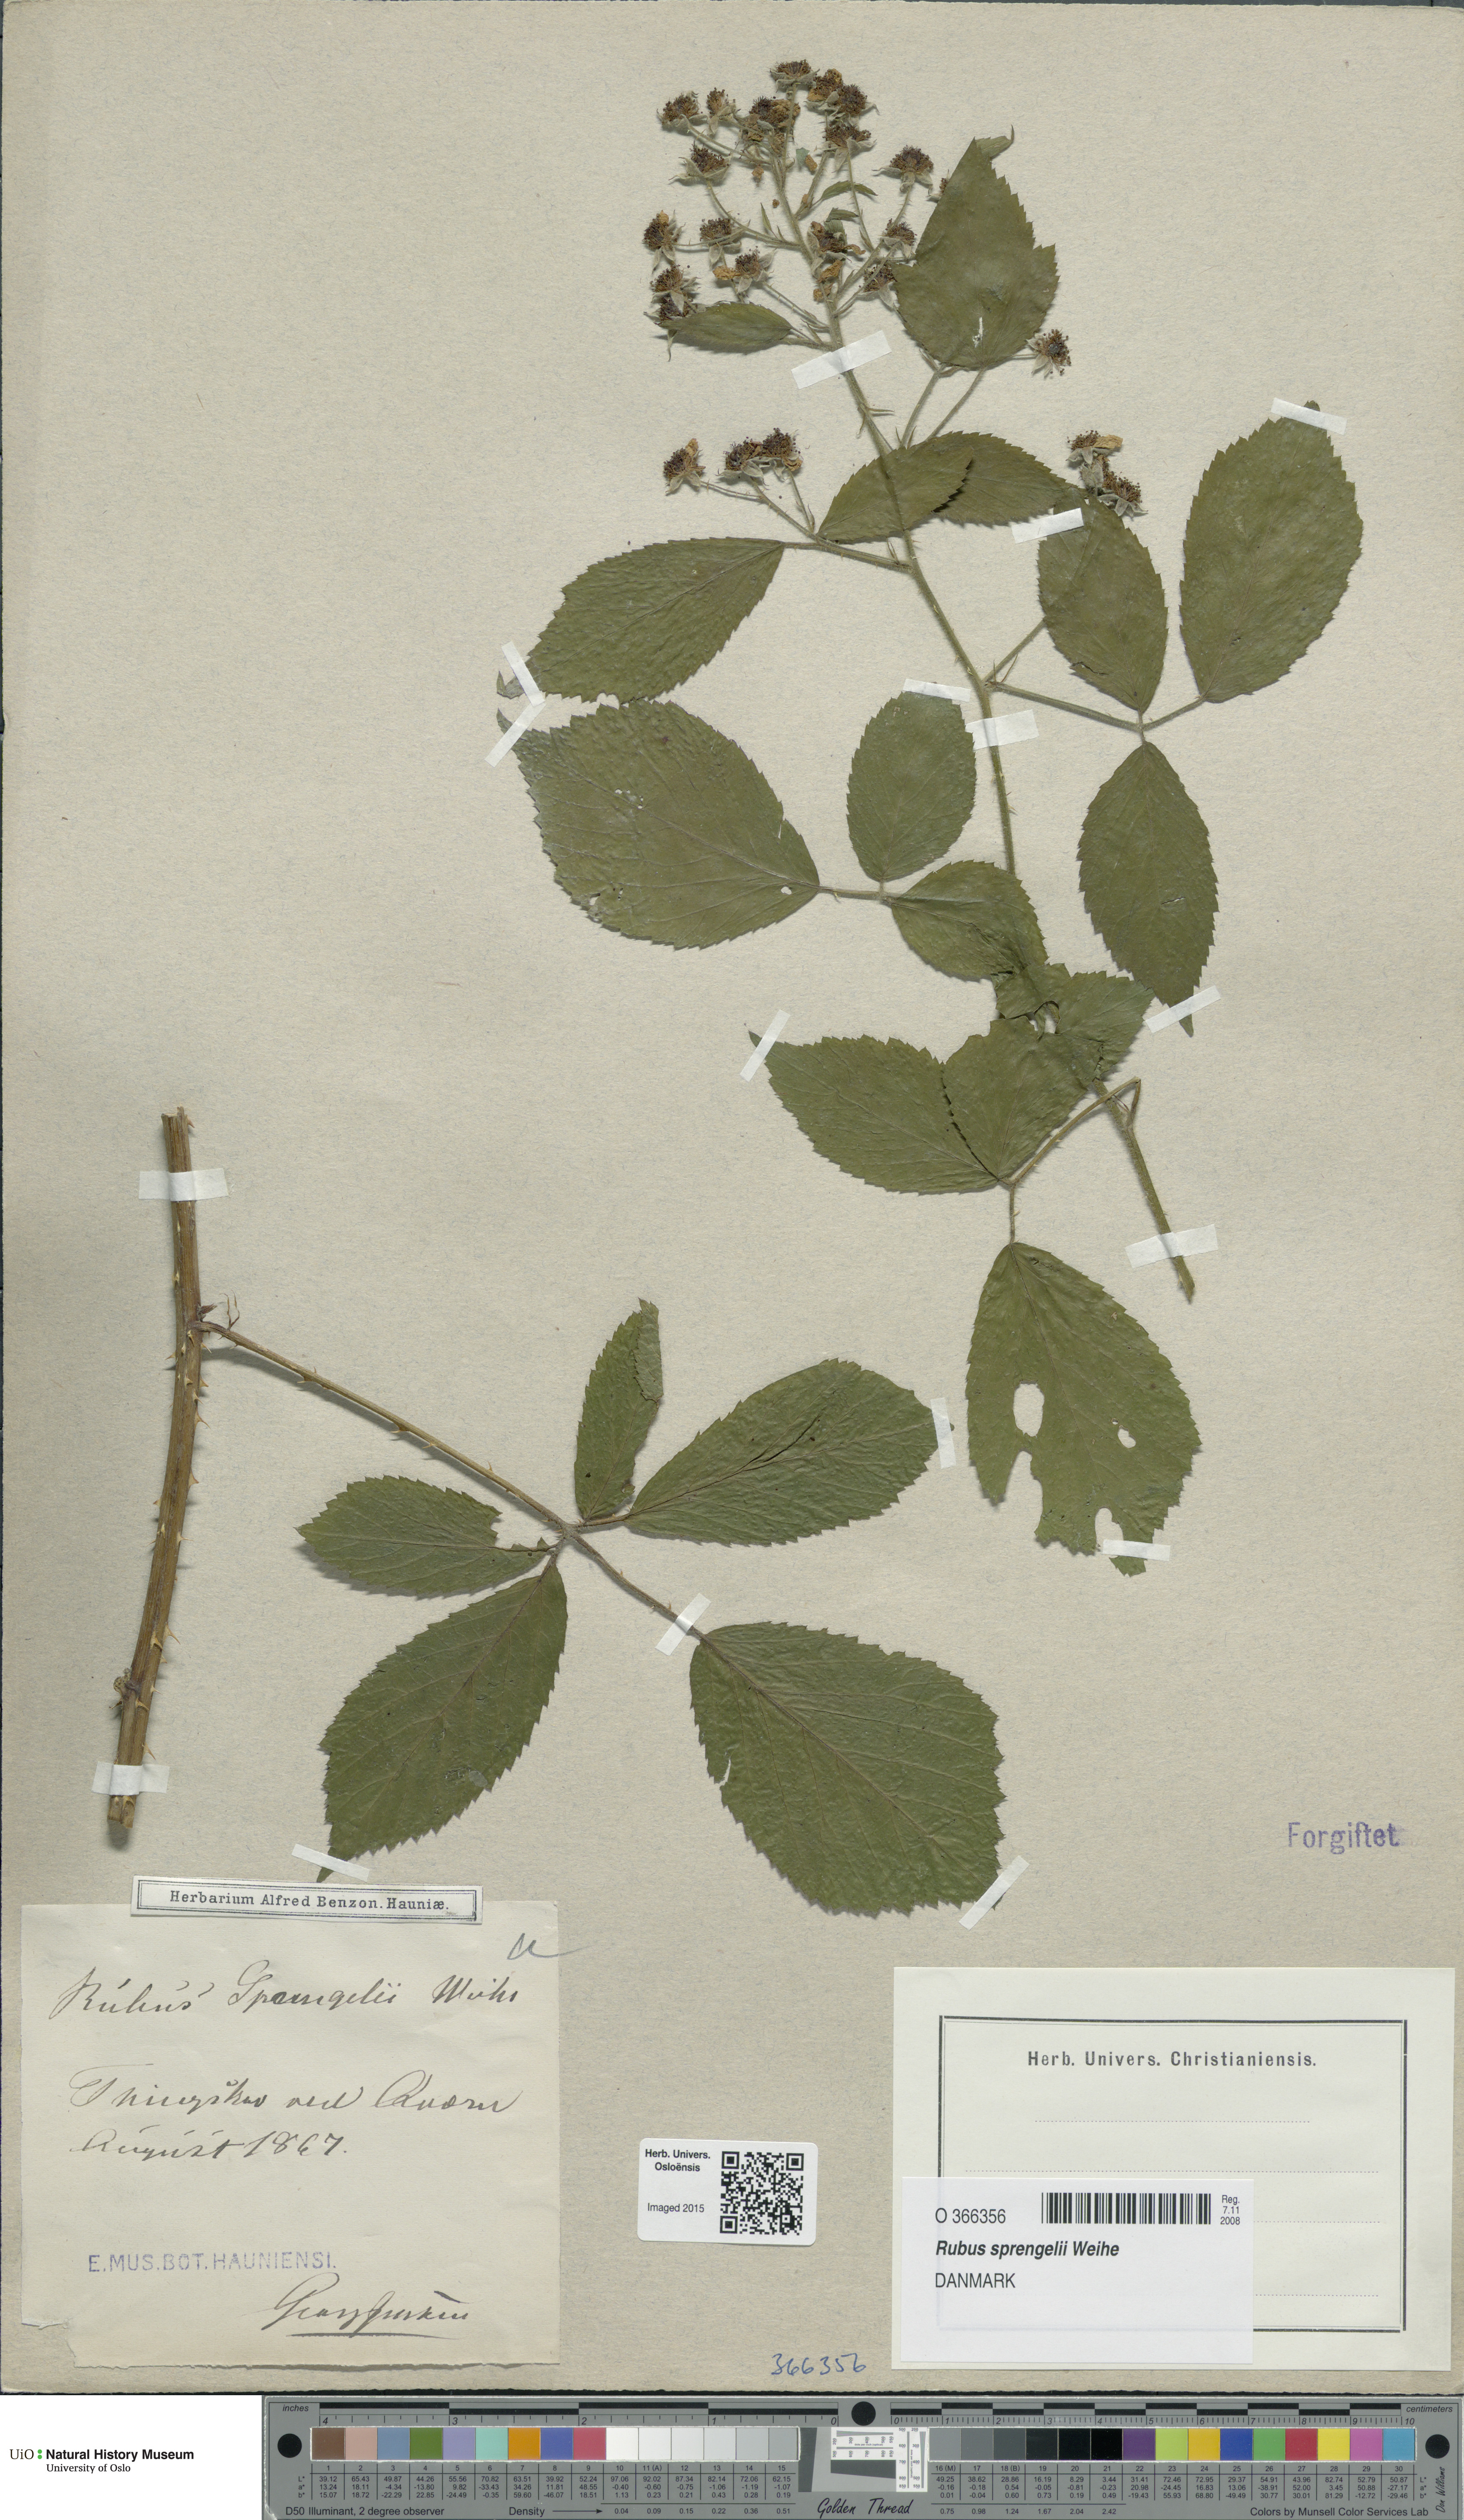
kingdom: Plantae
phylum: Tracheophyta
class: Magnoliopsida
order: Rosales
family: Rosaceae
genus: Rubus
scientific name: Rubus sprengelii
